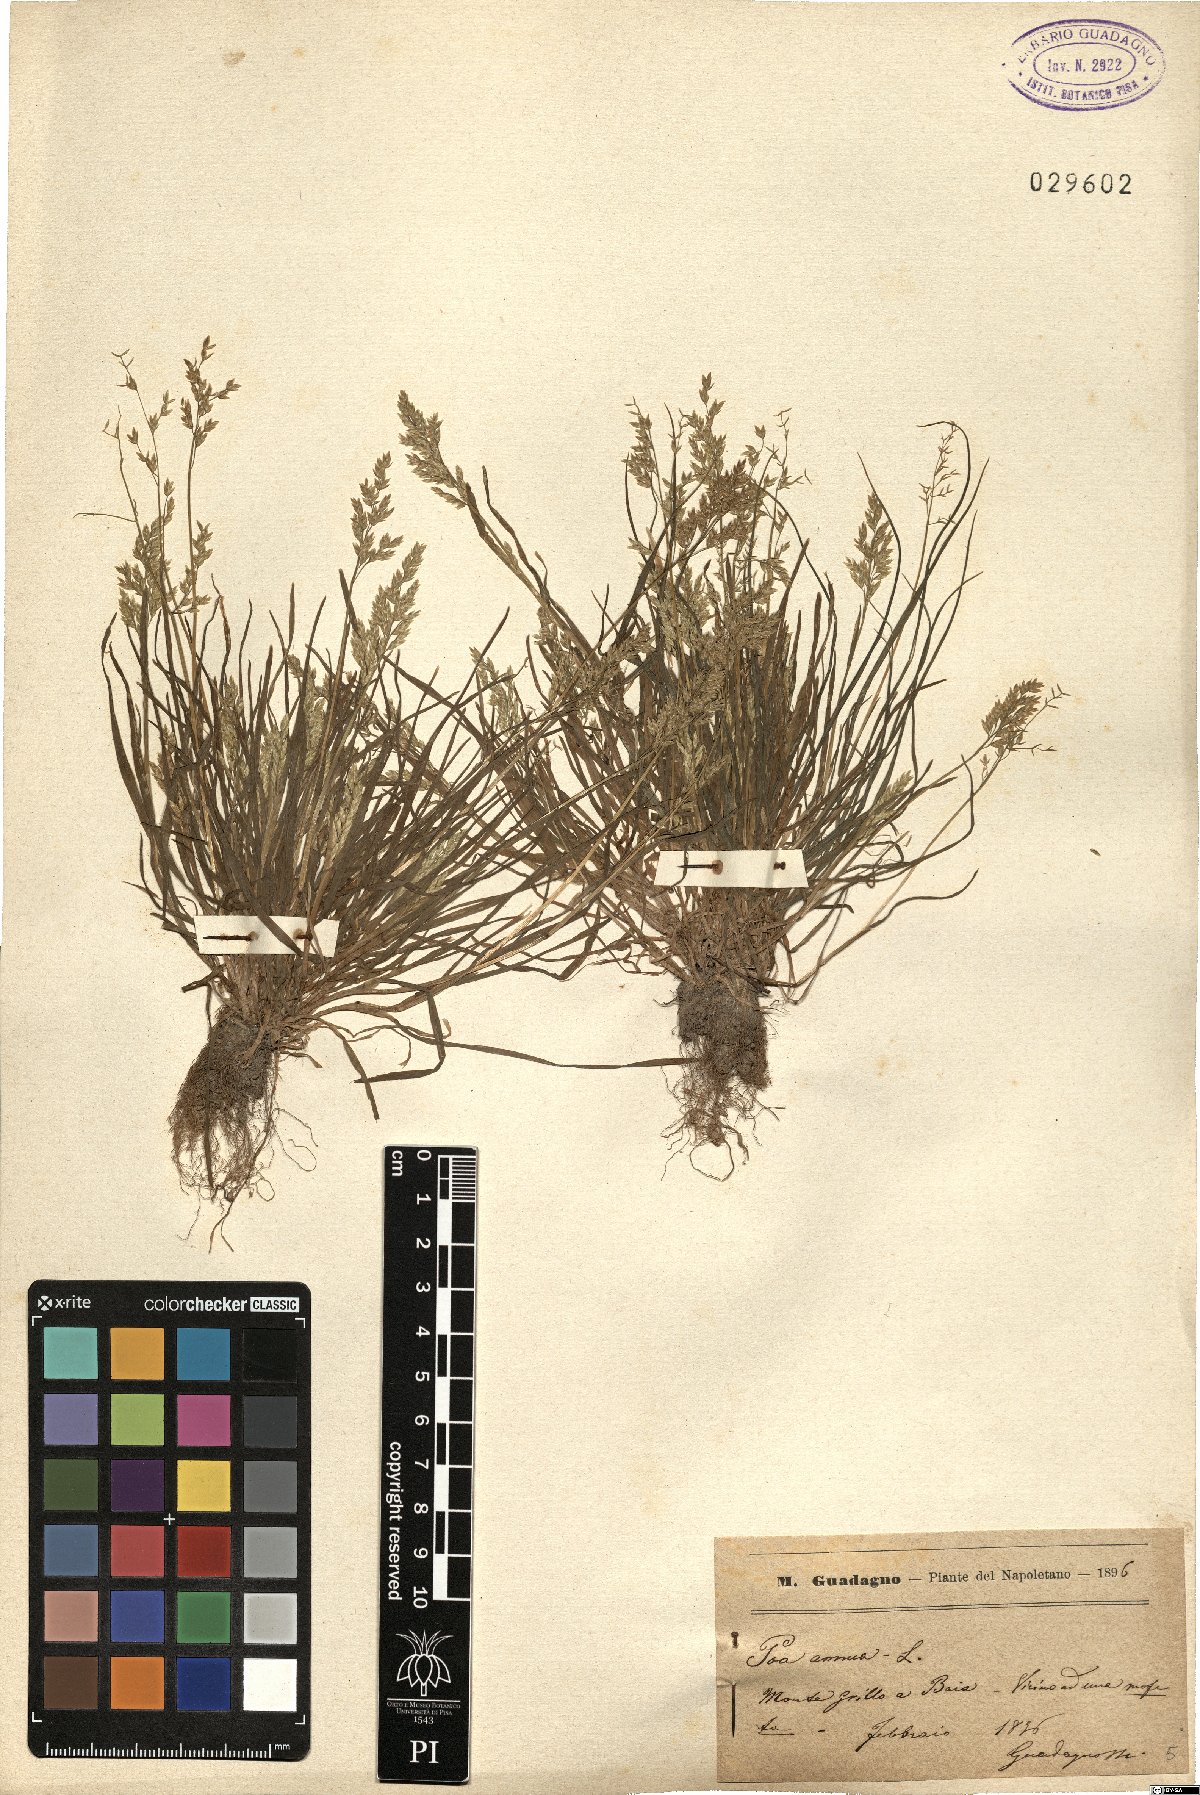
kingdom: Plantae
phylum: Tracheophyta
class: Liliopsida
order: Poales
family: Poaceae
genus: Poa
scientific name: Poa annua
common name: Annual bluegrass
